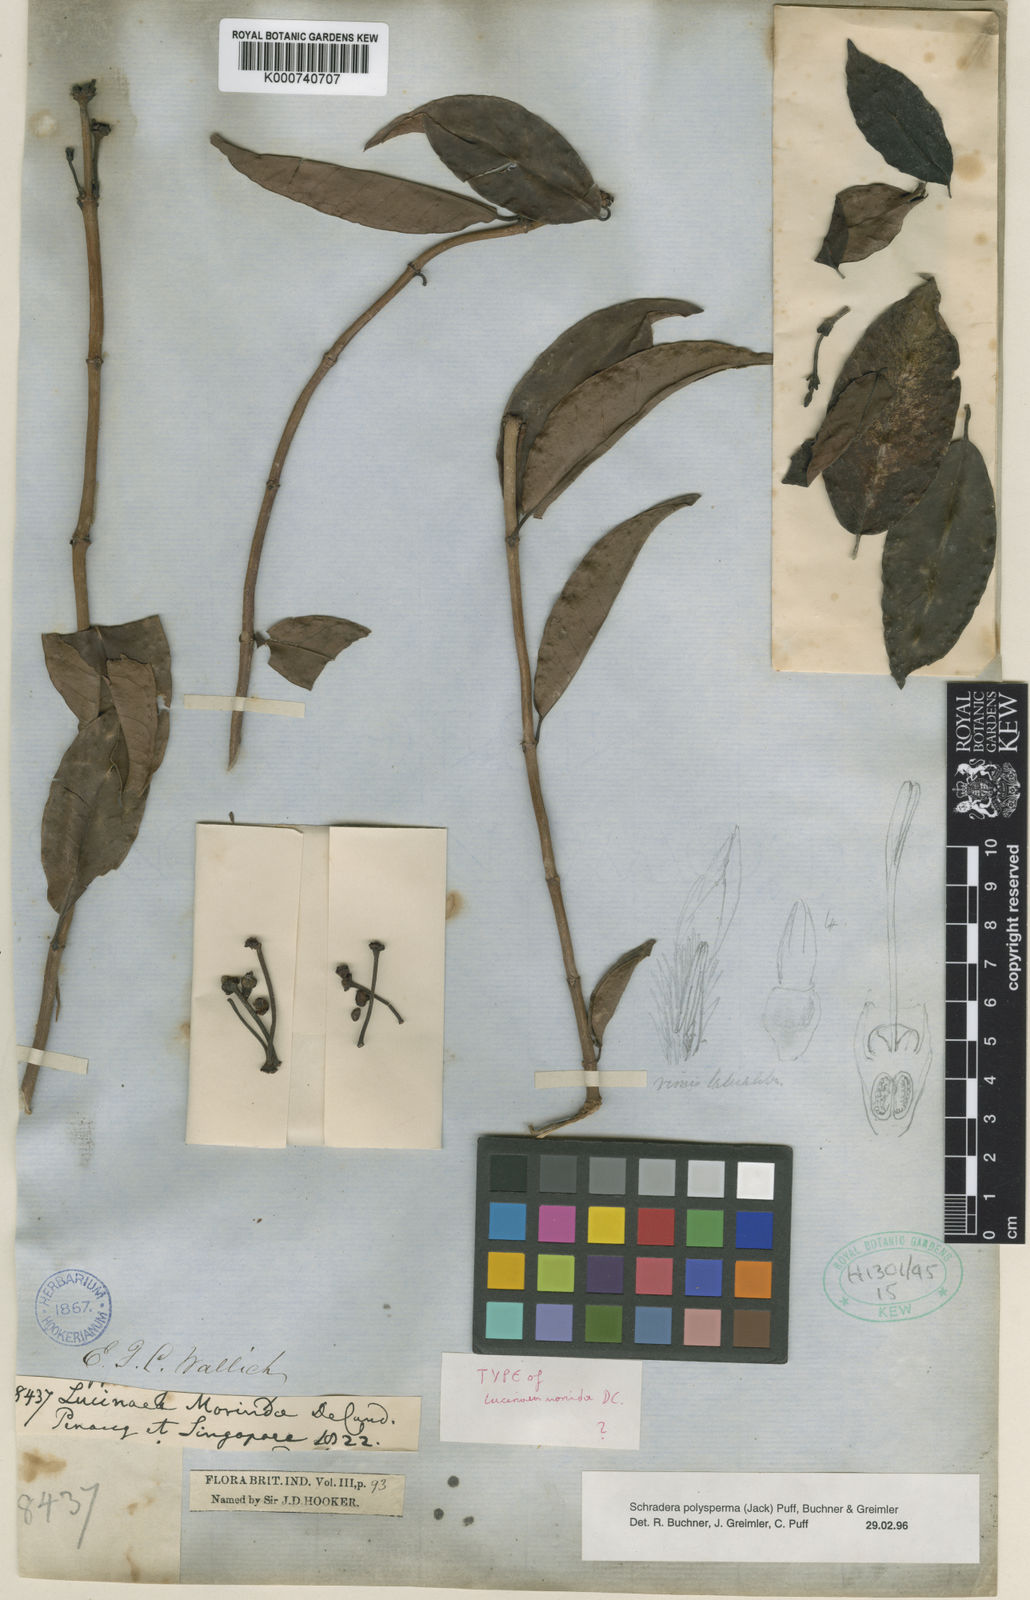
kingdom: Plantae
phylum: Tracheophyta
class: Magnoliopsida
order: Gentianales
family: Rubiaceae
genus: Schradera
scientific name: Schradera polysperma
